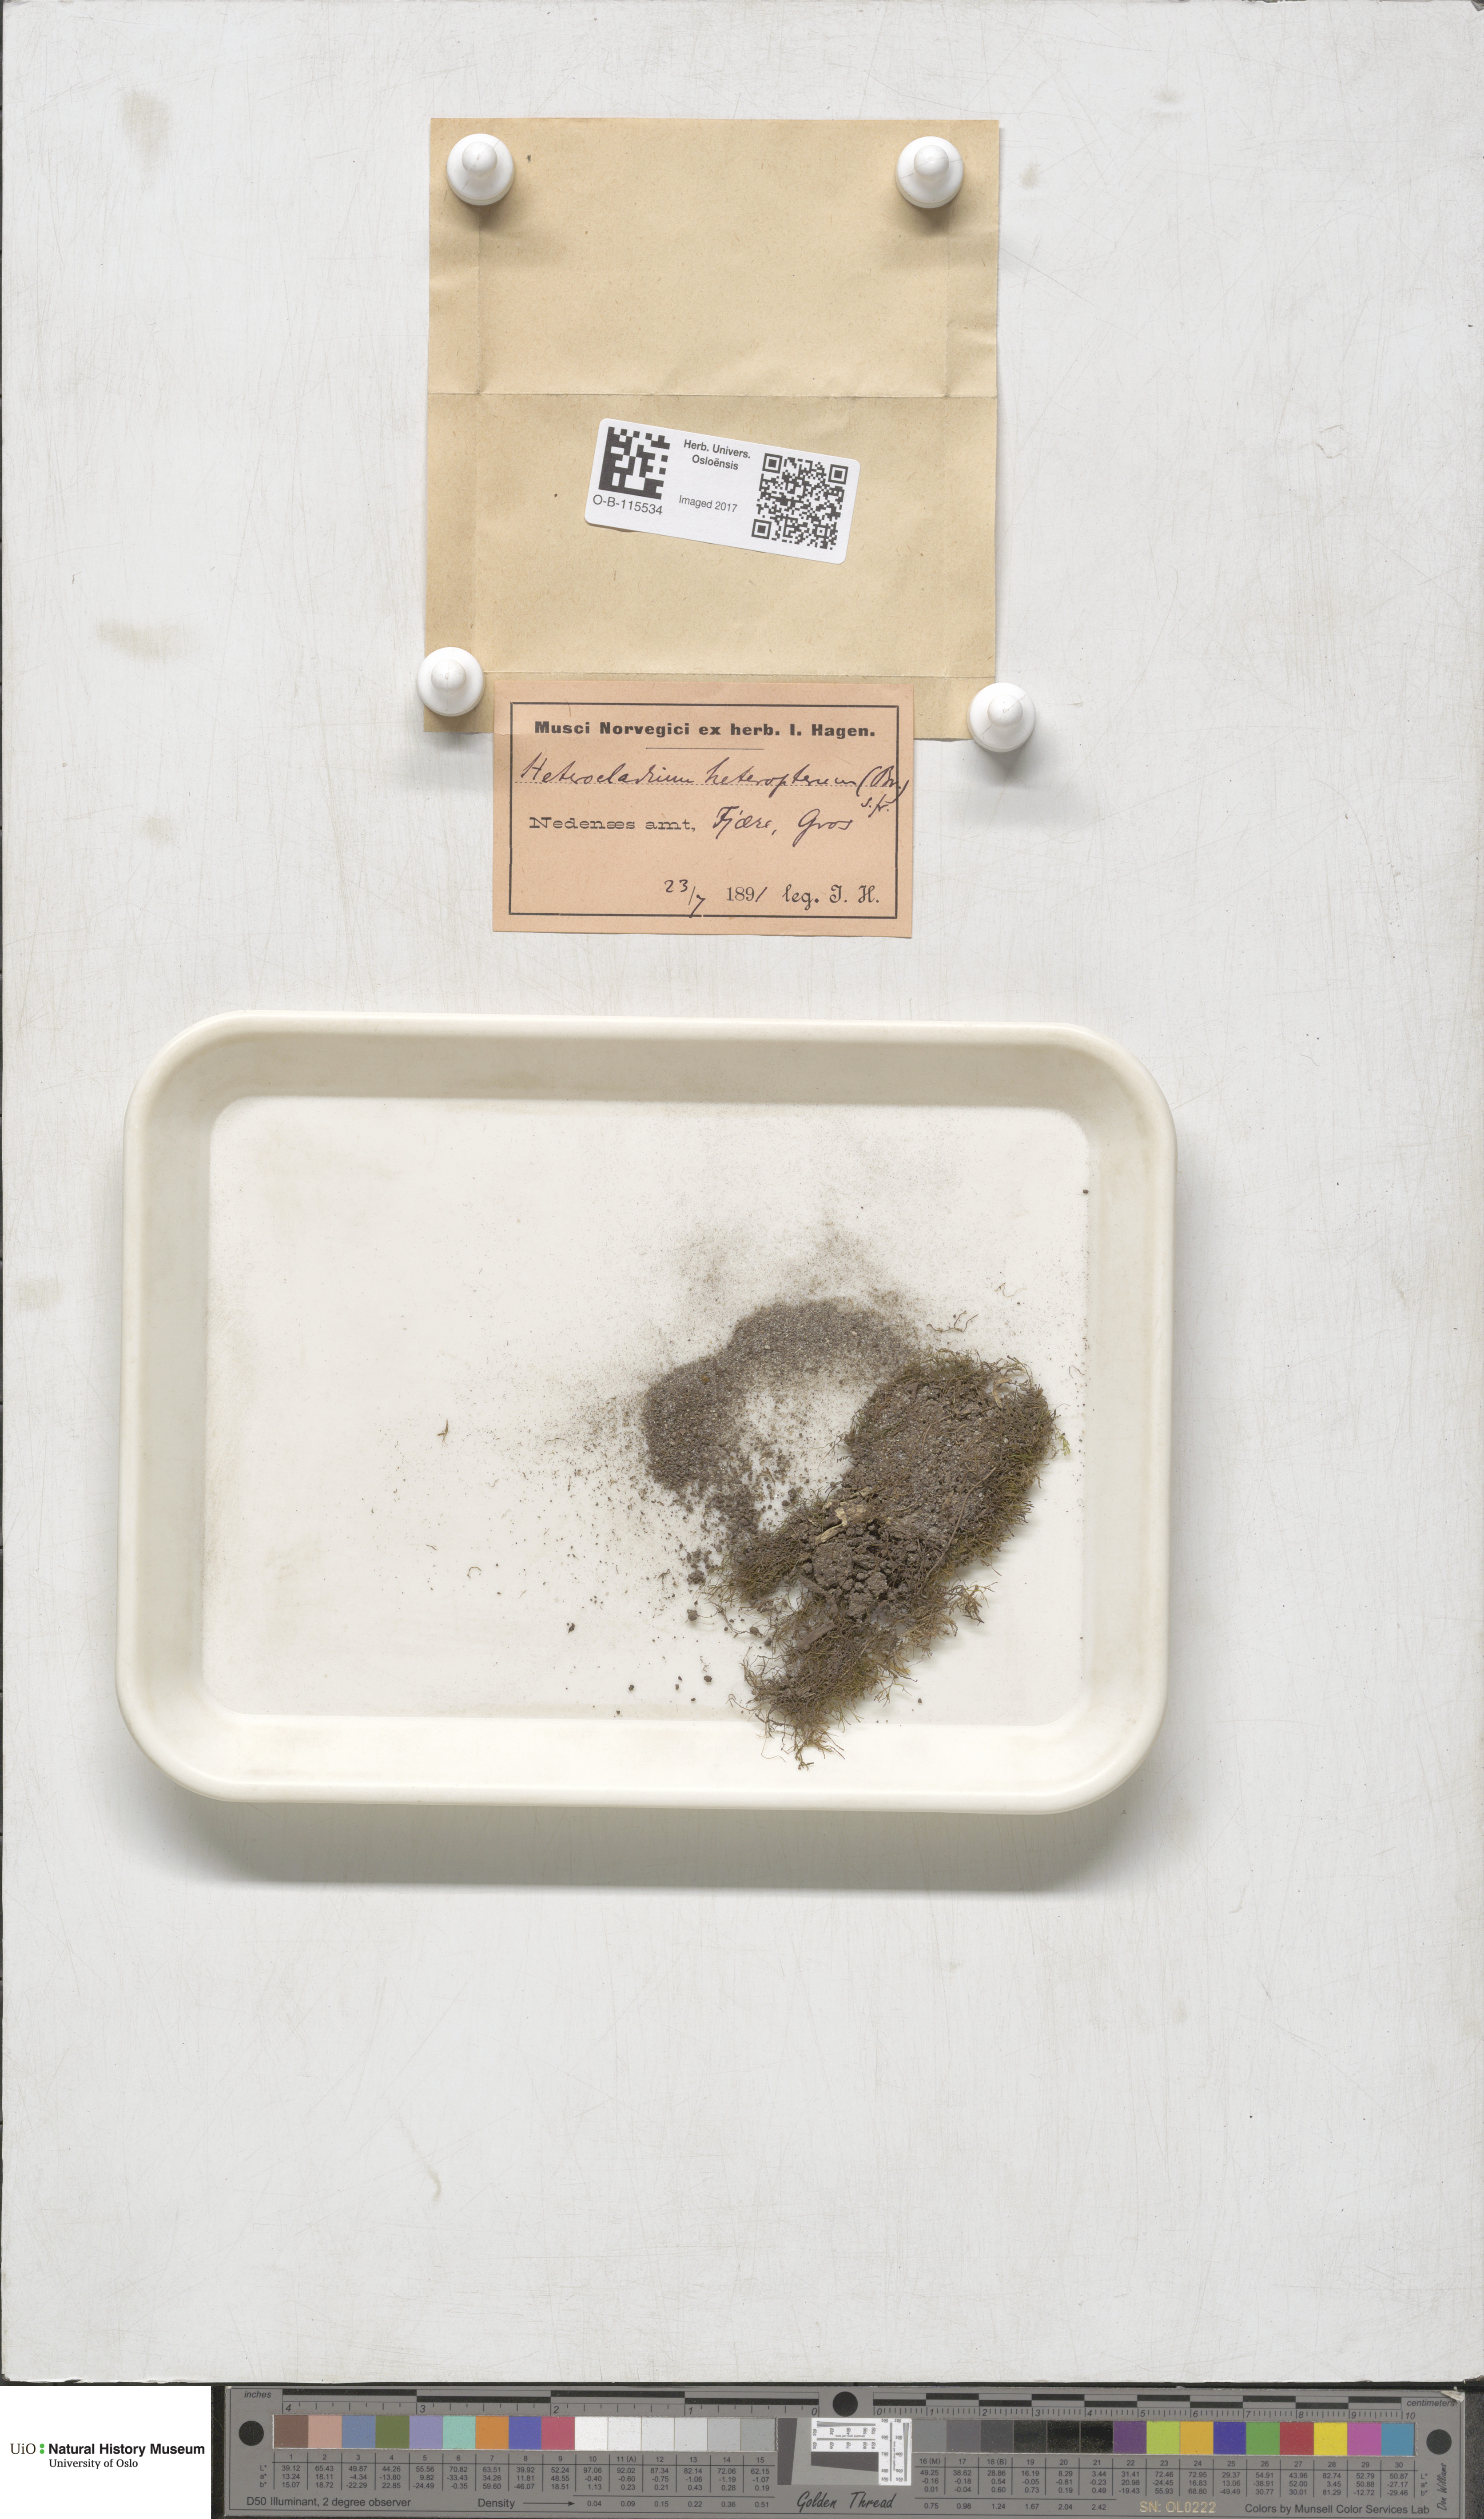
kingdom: Plantae
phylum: Bryophyta
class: Bryopsida
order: Hypnales
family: Lembophyllaceae
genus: Heterocladium
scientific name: Heterocladium heteropterum
